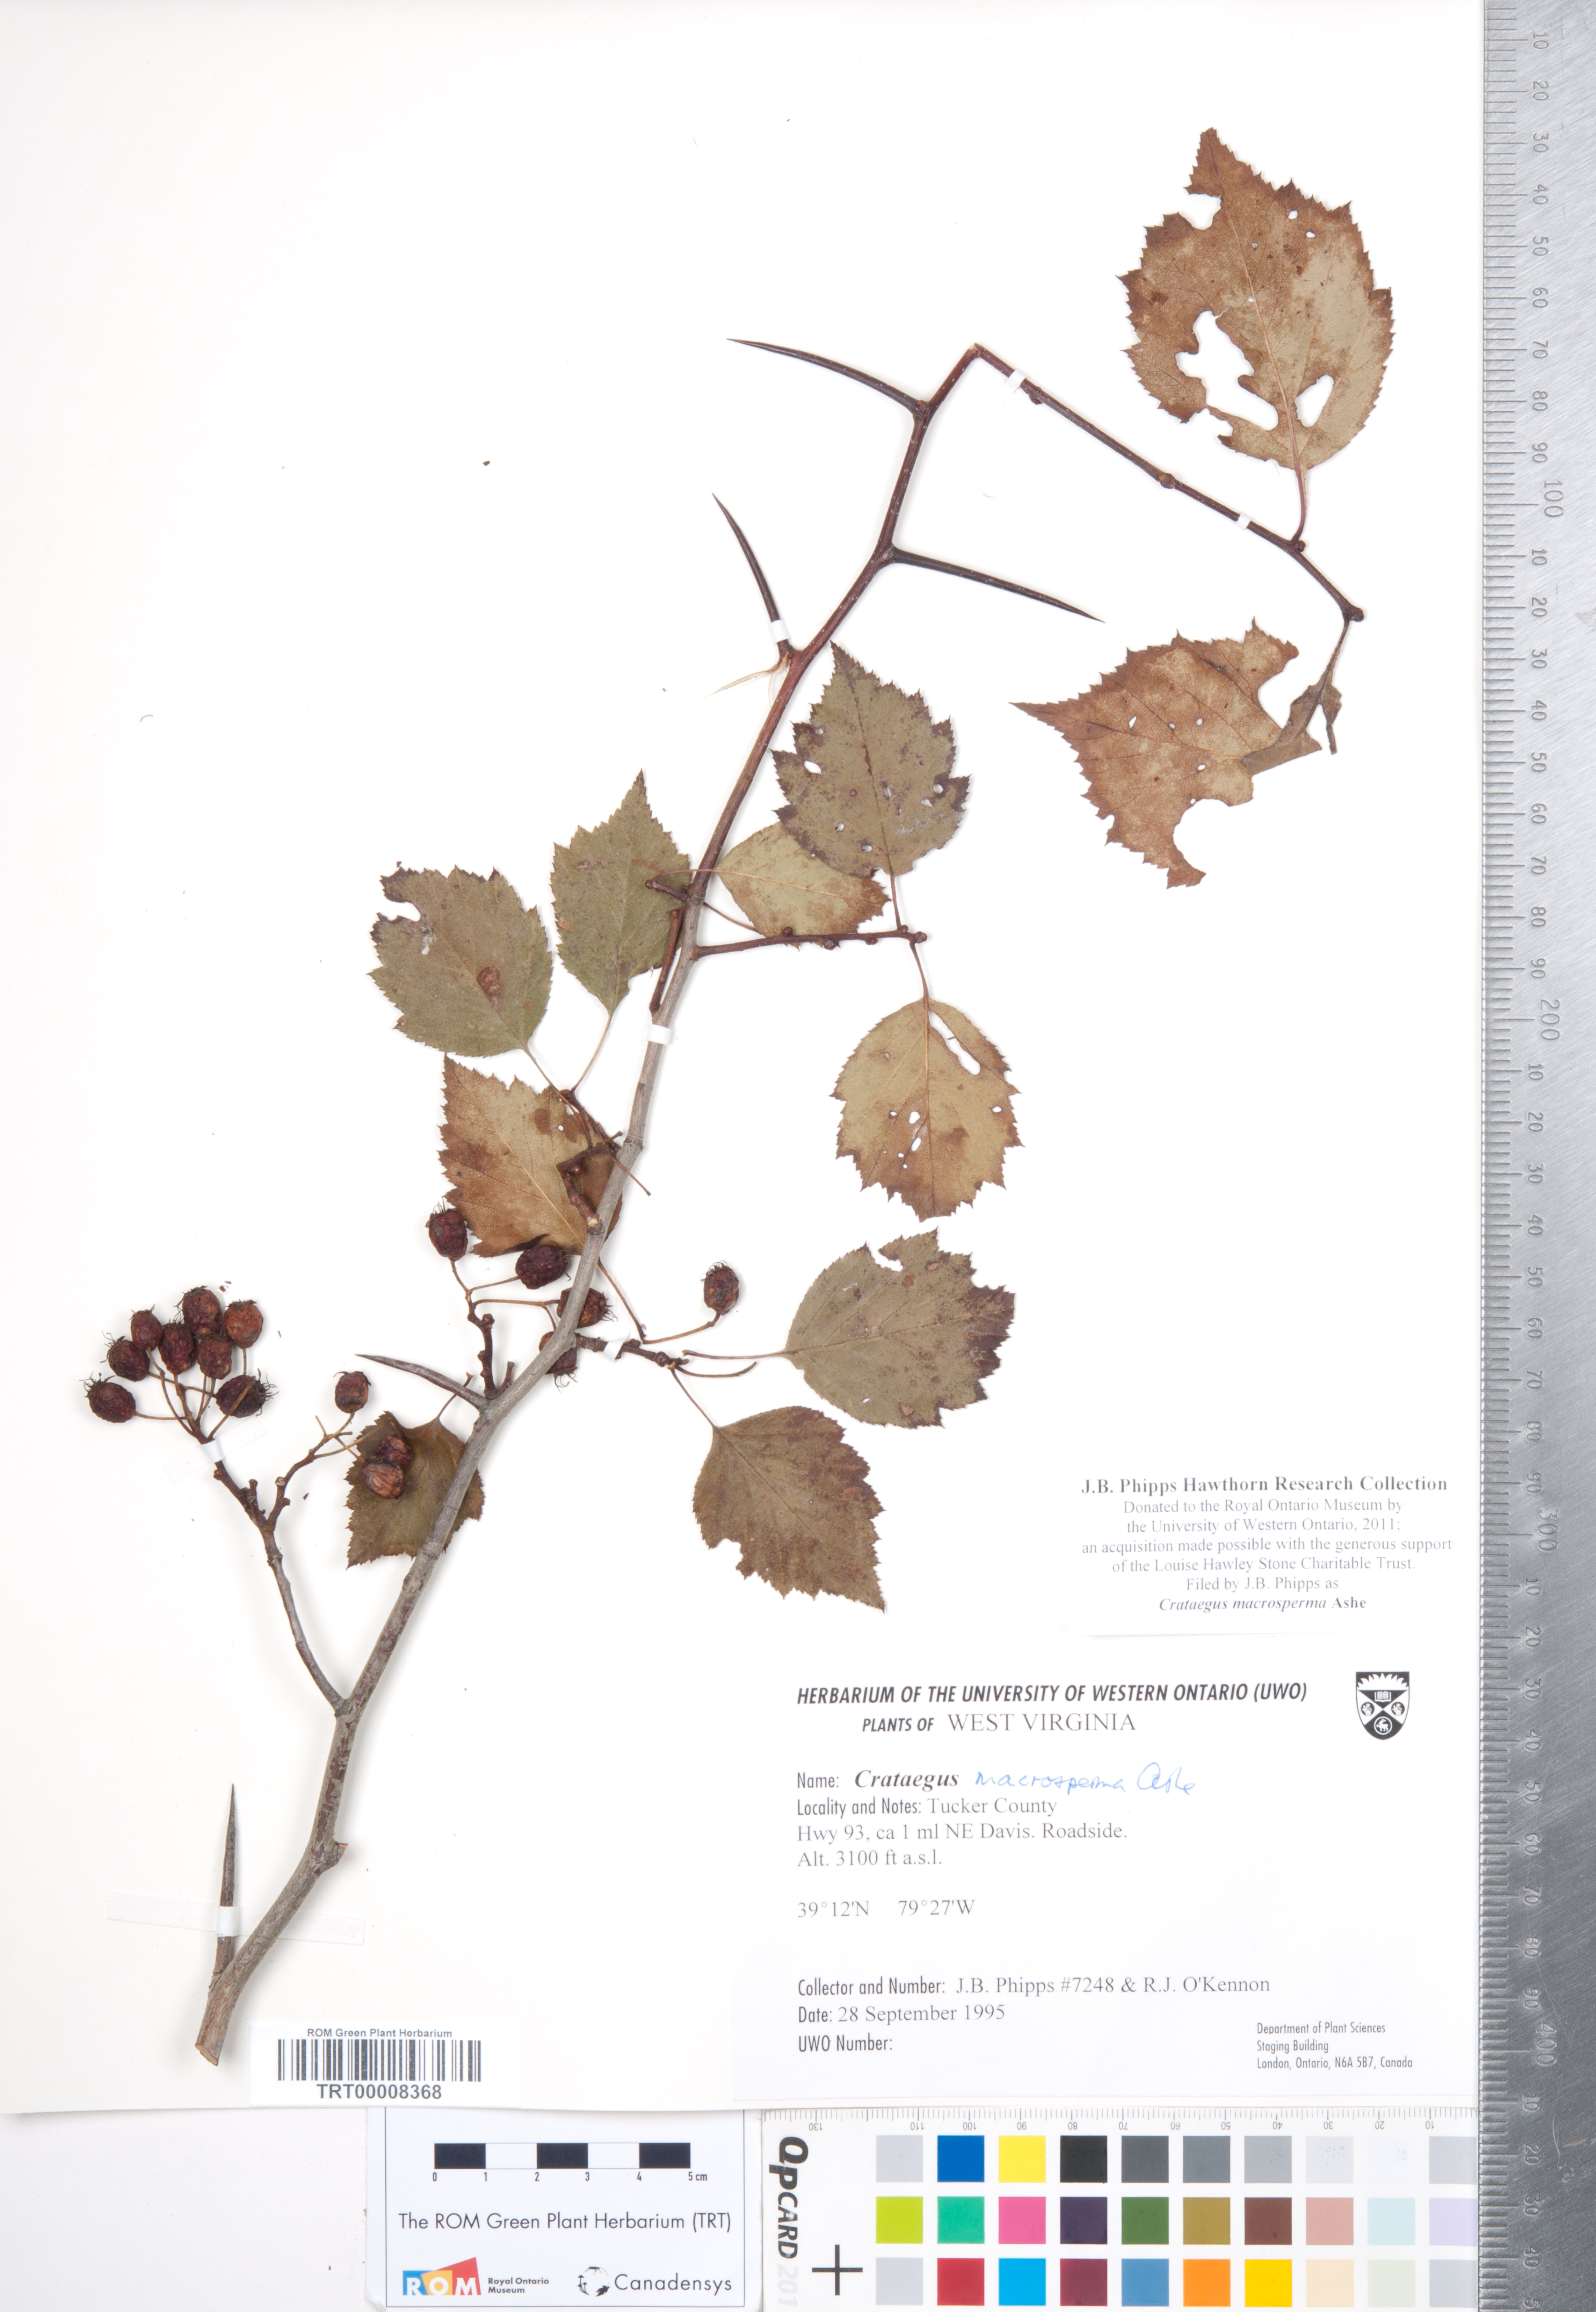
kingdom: Plantae
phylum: Tracheophyta
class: Magnoliopsida
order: Rosales
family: Rosaceae
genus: Crataegus
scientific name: Crataegus macrosperma
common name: Variable hawthorn
